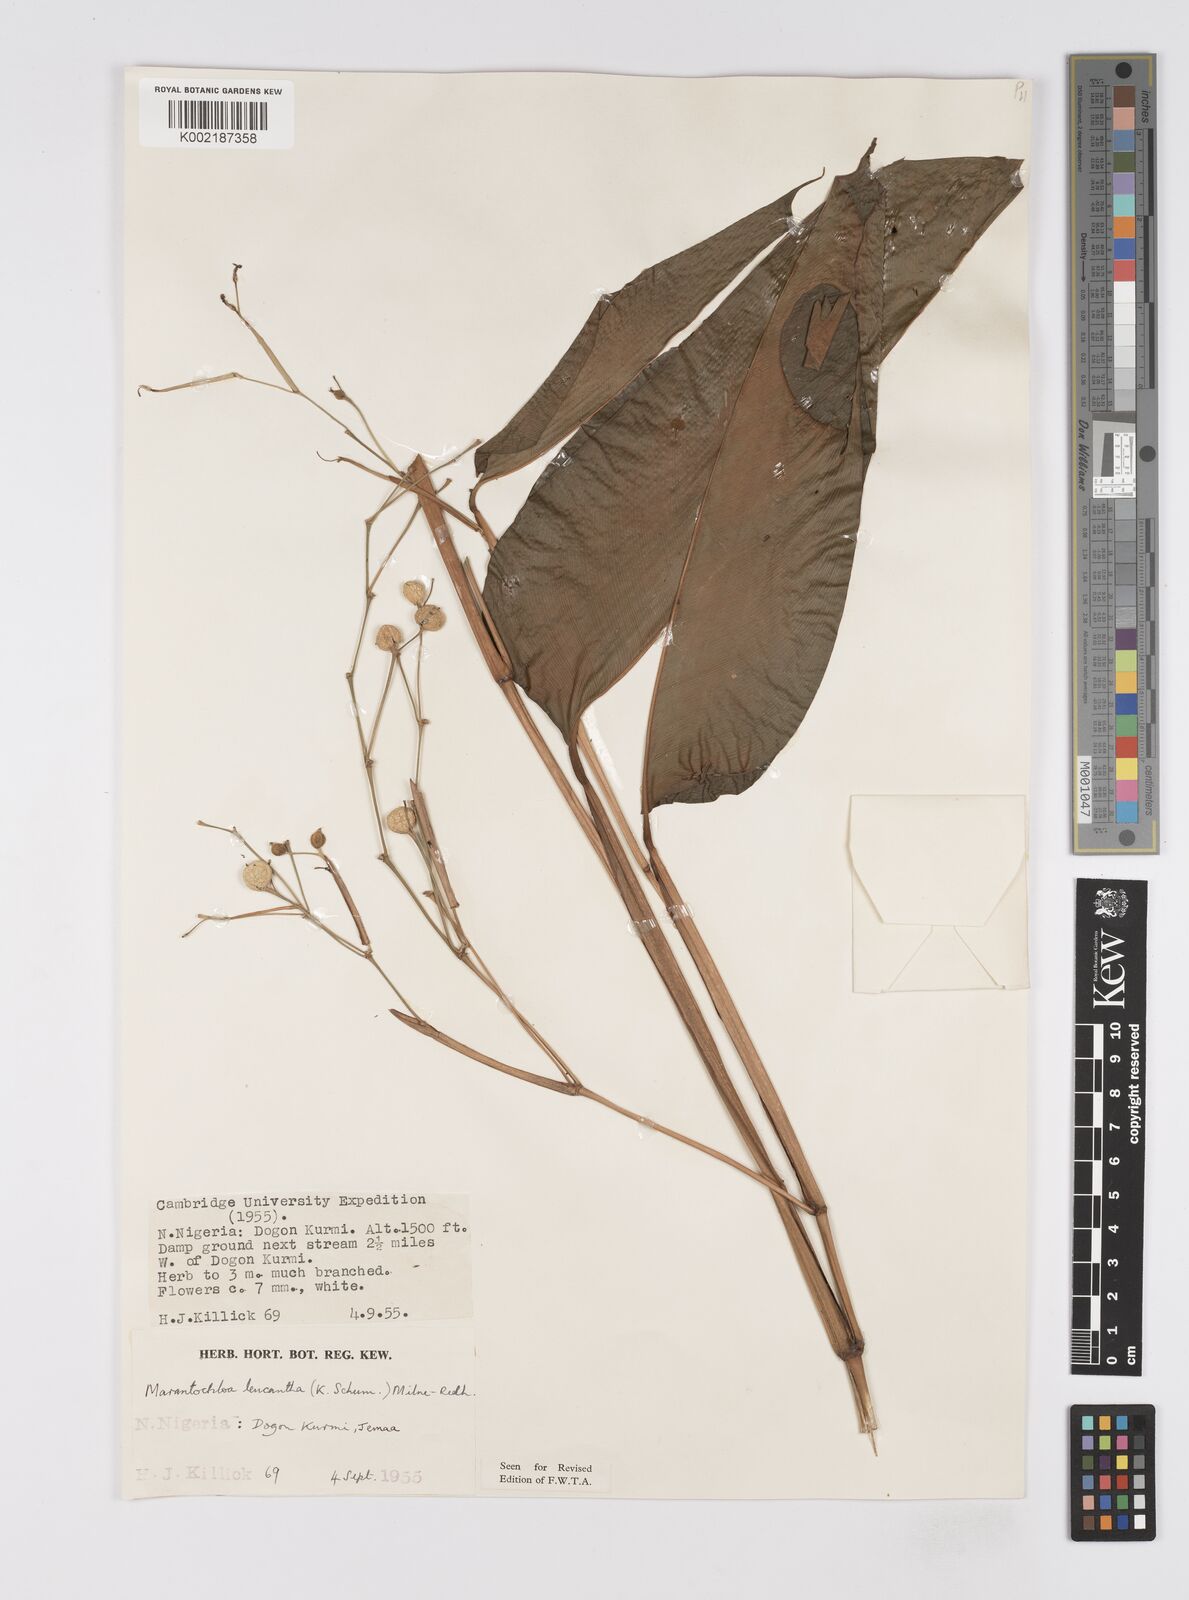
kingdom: Plantae
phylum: Tracheophyta
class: Liliopsida
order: Zingiberales
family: Marantaceae
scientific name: Marantaceae
